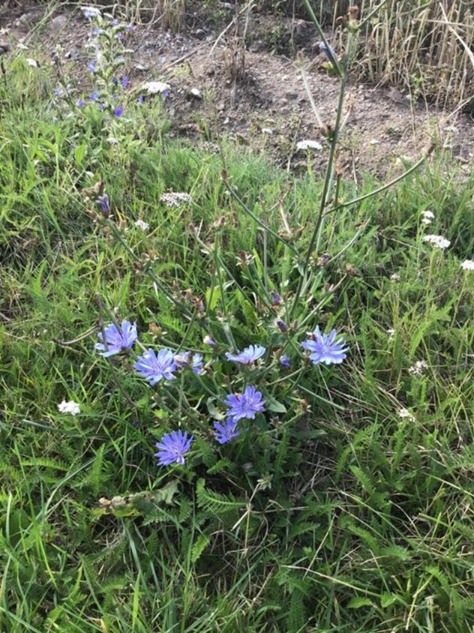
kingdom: Plantae
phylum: Tracheophyta
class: Magnoliopsida
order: Asterales
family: Asteraceae
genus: Cichorium
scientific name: Cichorium intybus
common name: Cikorie
